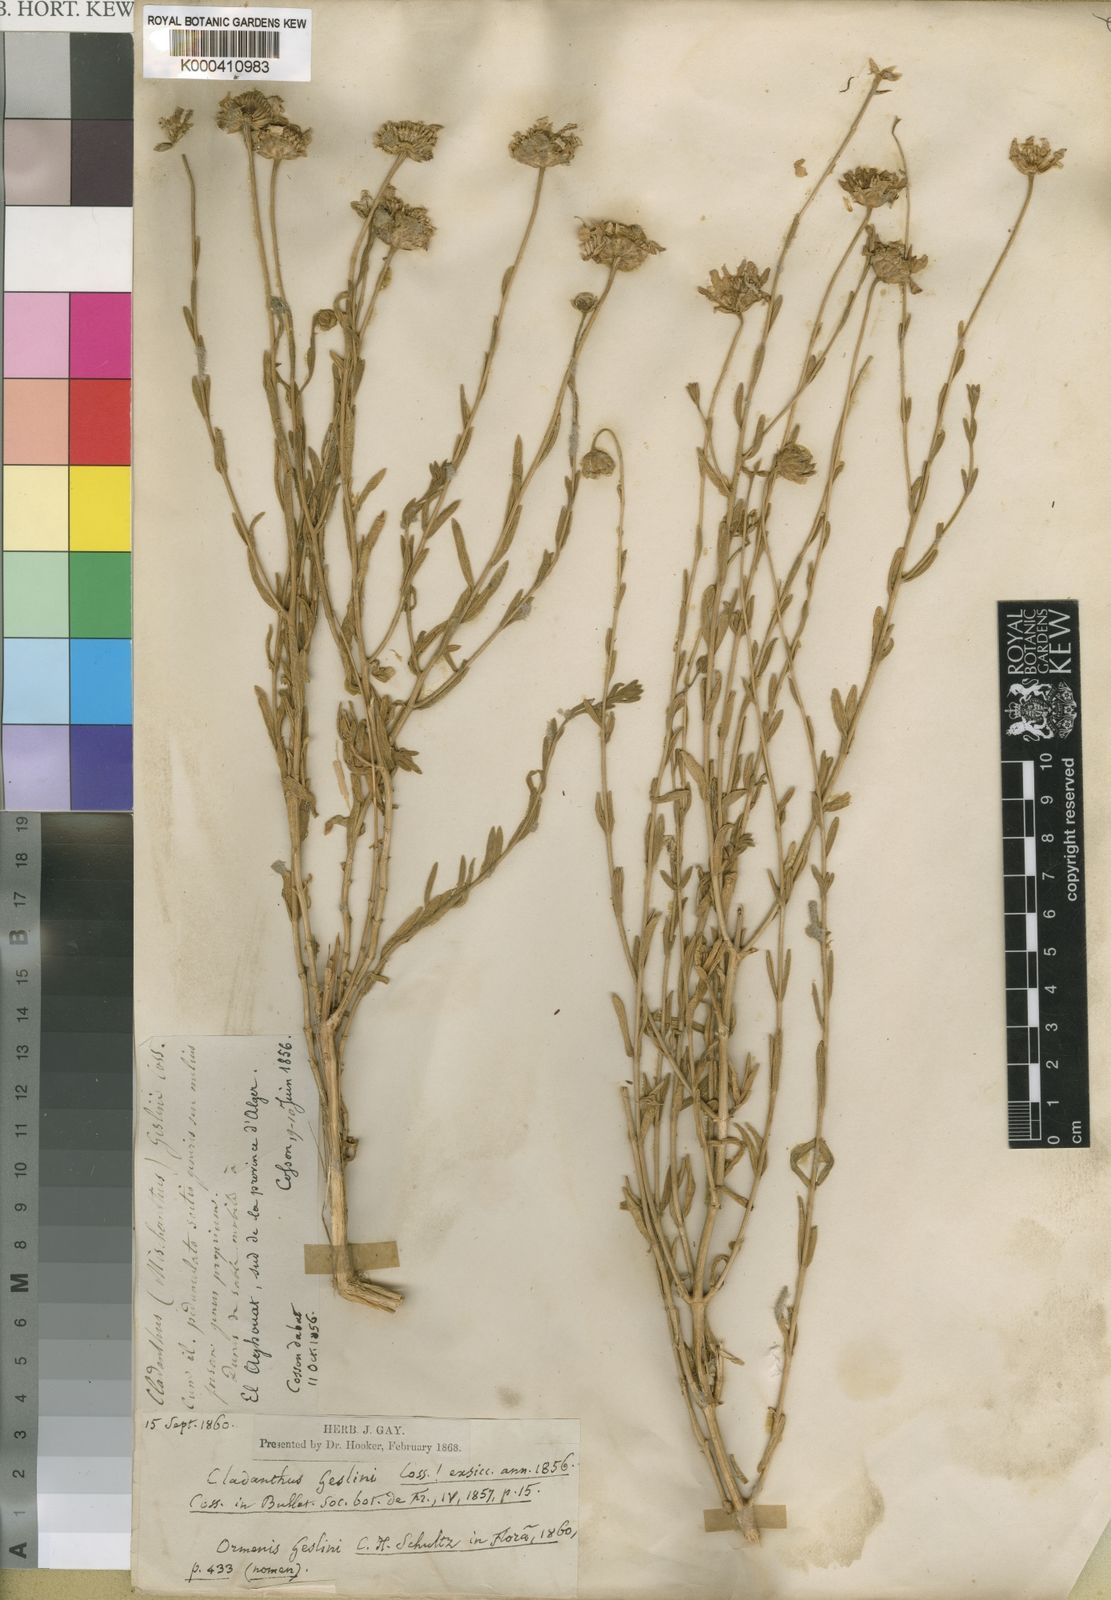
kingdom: Plantae
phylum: Tracheophyta
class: Magnoliopsida
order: Asterales
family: Asteraceae
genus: Mecomischus
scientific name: Mecomischus
